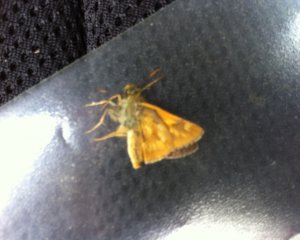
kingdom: Animalia
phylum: Arthropoda
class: Insecta
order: Lepidoptera
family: Hesperiidae
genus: Polites
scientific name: Polites
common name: Long Dash Skipper
